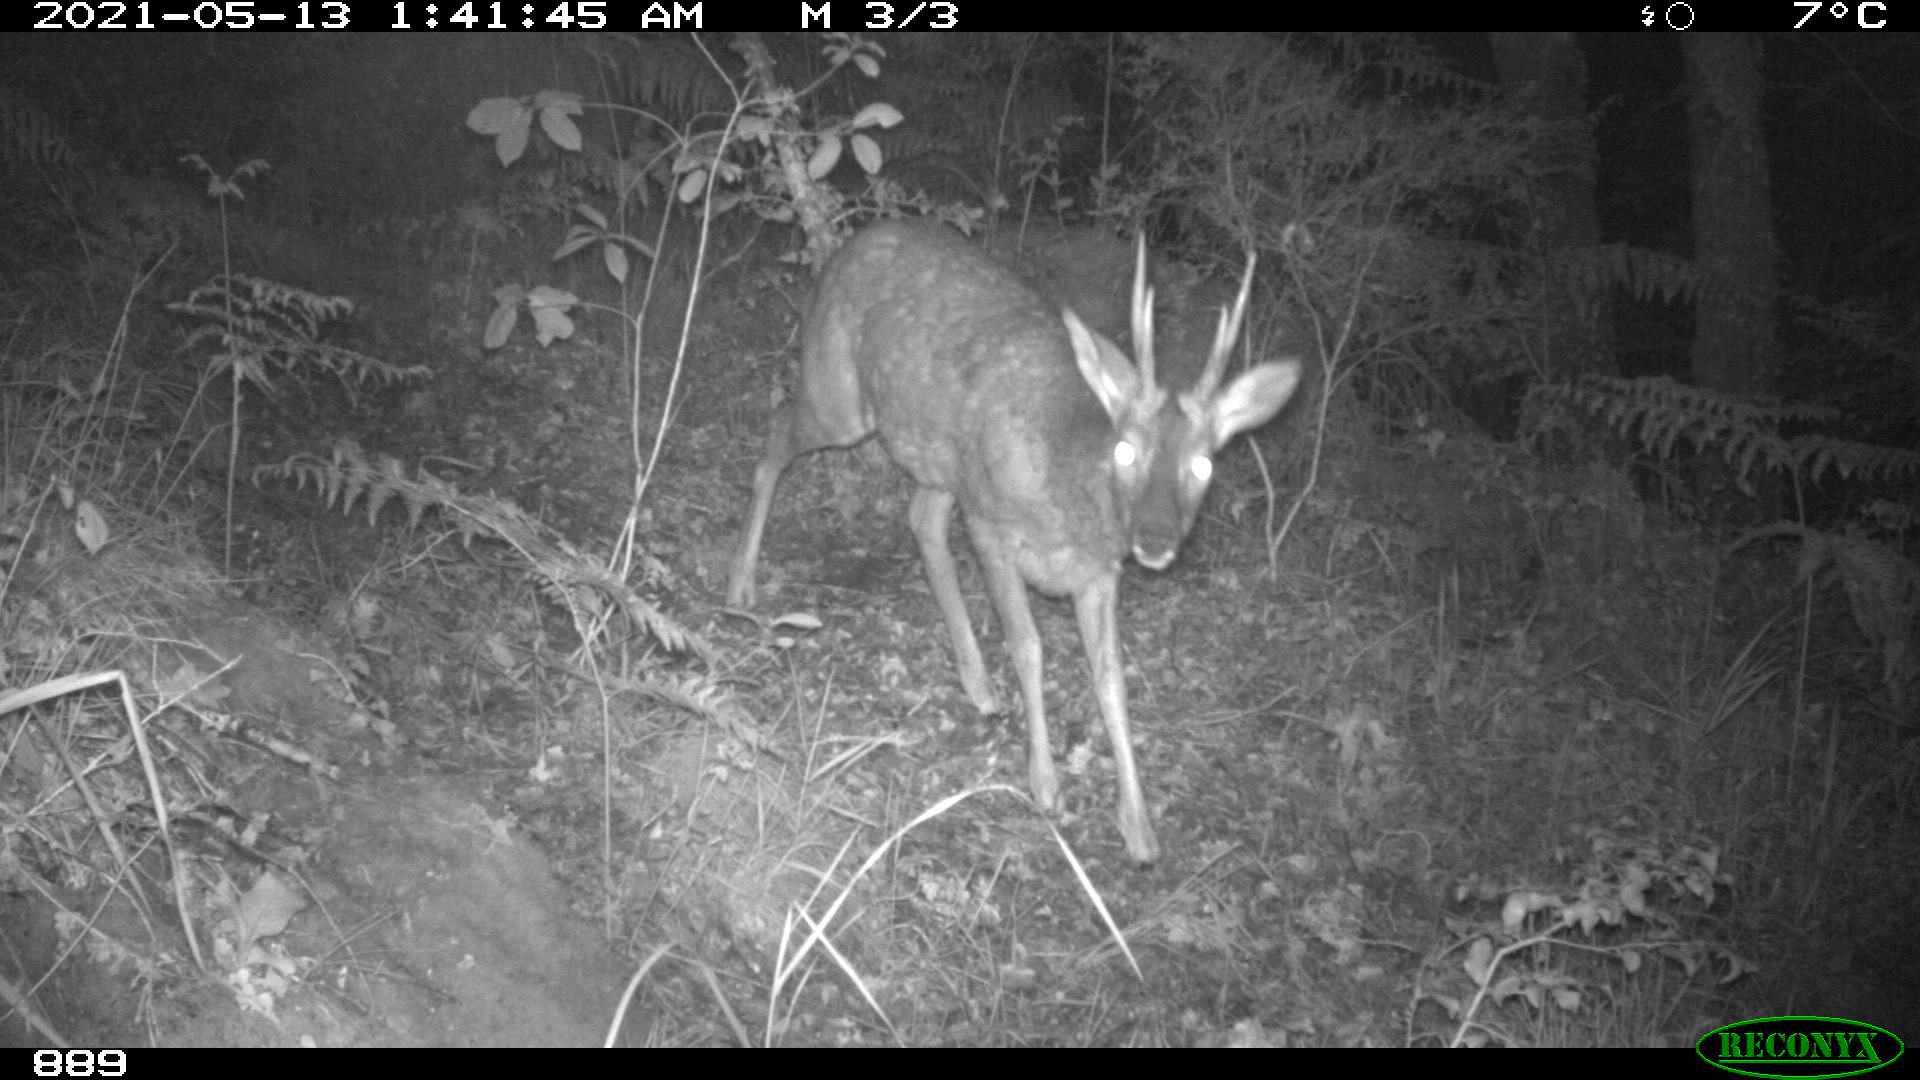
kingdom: Animalia
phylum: Chordata
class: Mammalia
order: Artiodactyla
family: Cervidae
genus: Capreolus
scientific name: Capreolus capreolus
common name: Western roe deer
